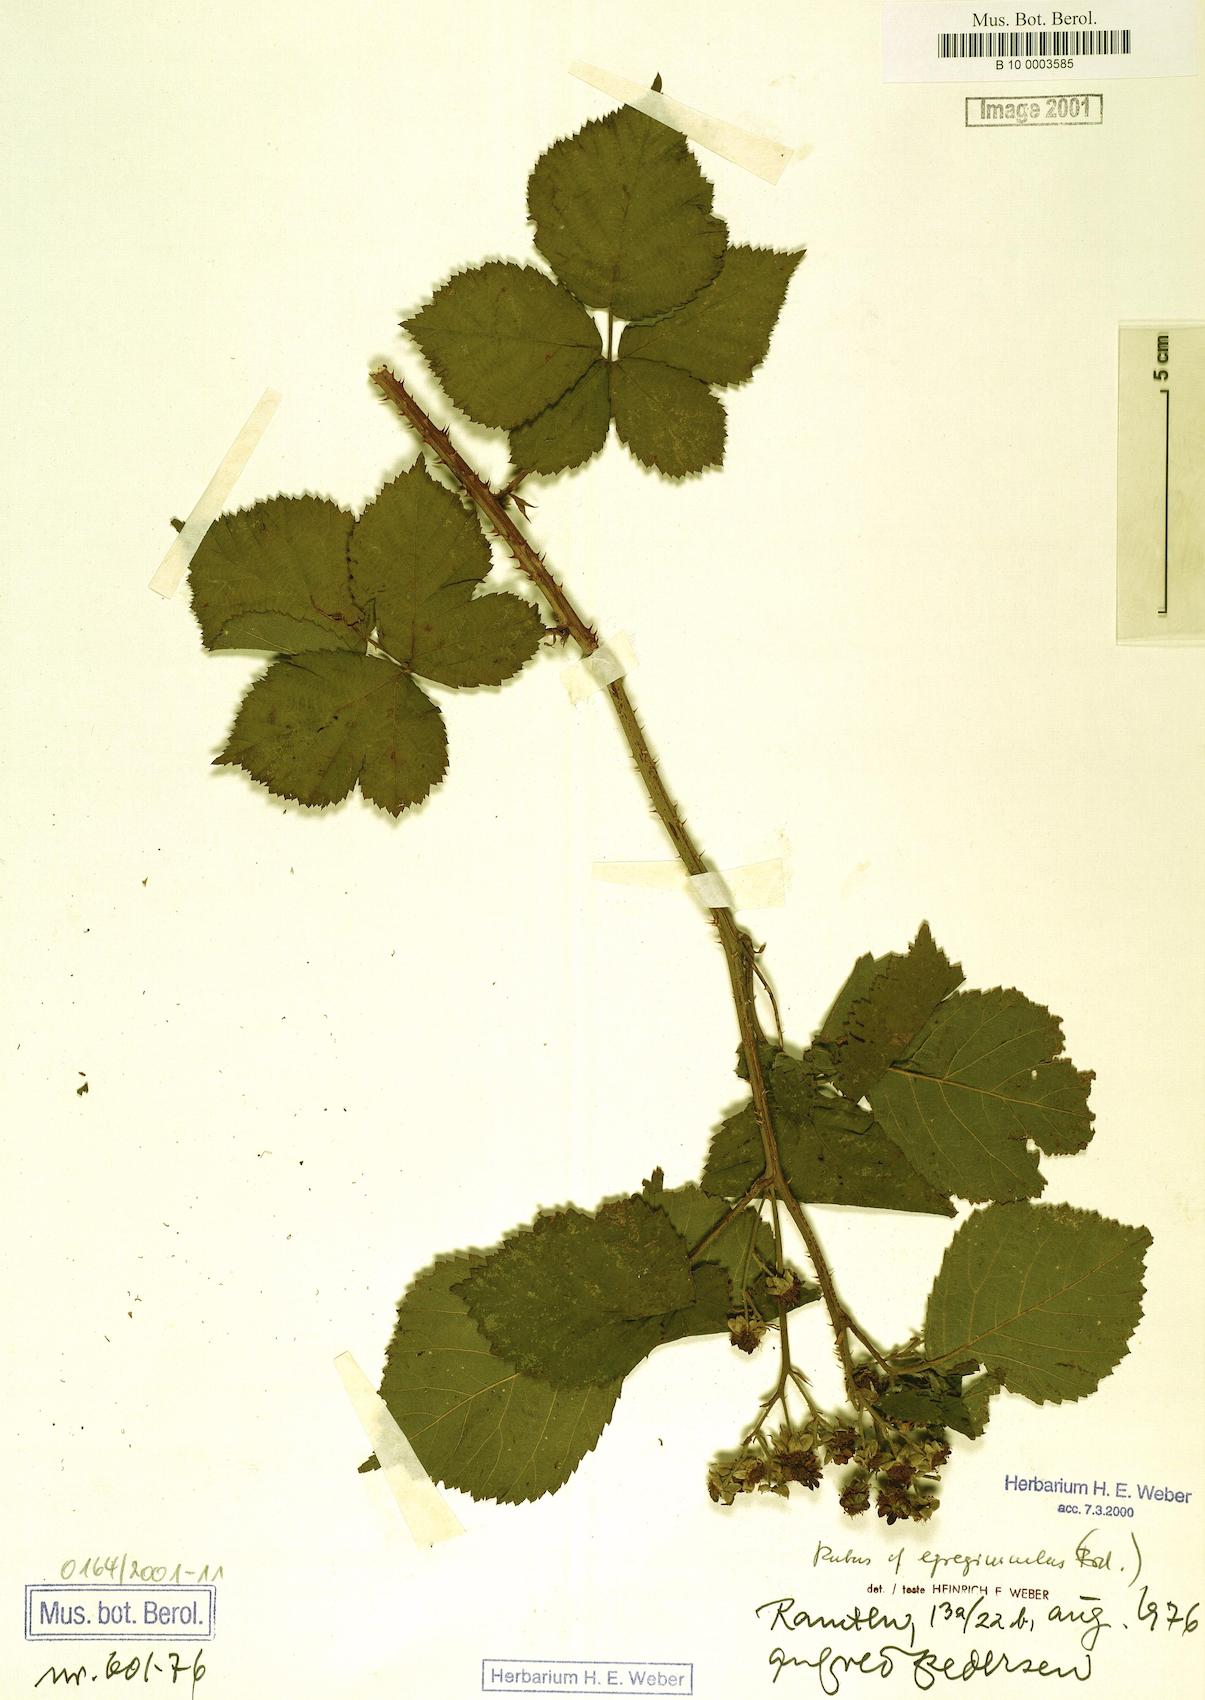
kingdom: Plantae
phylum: Tracheophyta
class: Magnoliopsida
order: Rosales
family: Rosaceae
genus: Rubus
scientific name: Rubus egregiusculus
